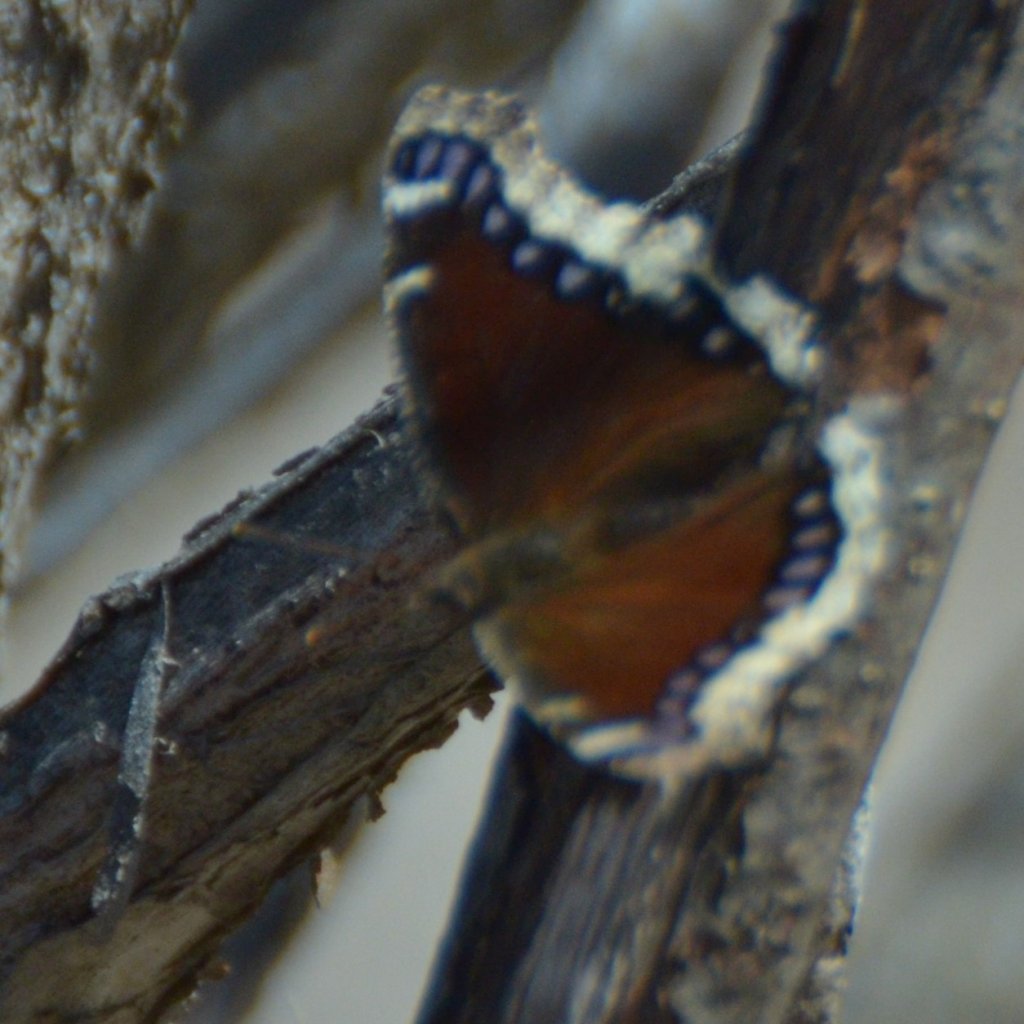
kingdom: Animalia
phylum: Arthropoda
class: Insecta
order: Lepidoptera
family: Nymphalidae
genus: Nymphalis
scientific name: Nymphalis antiopa
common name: Mourning Cloak
